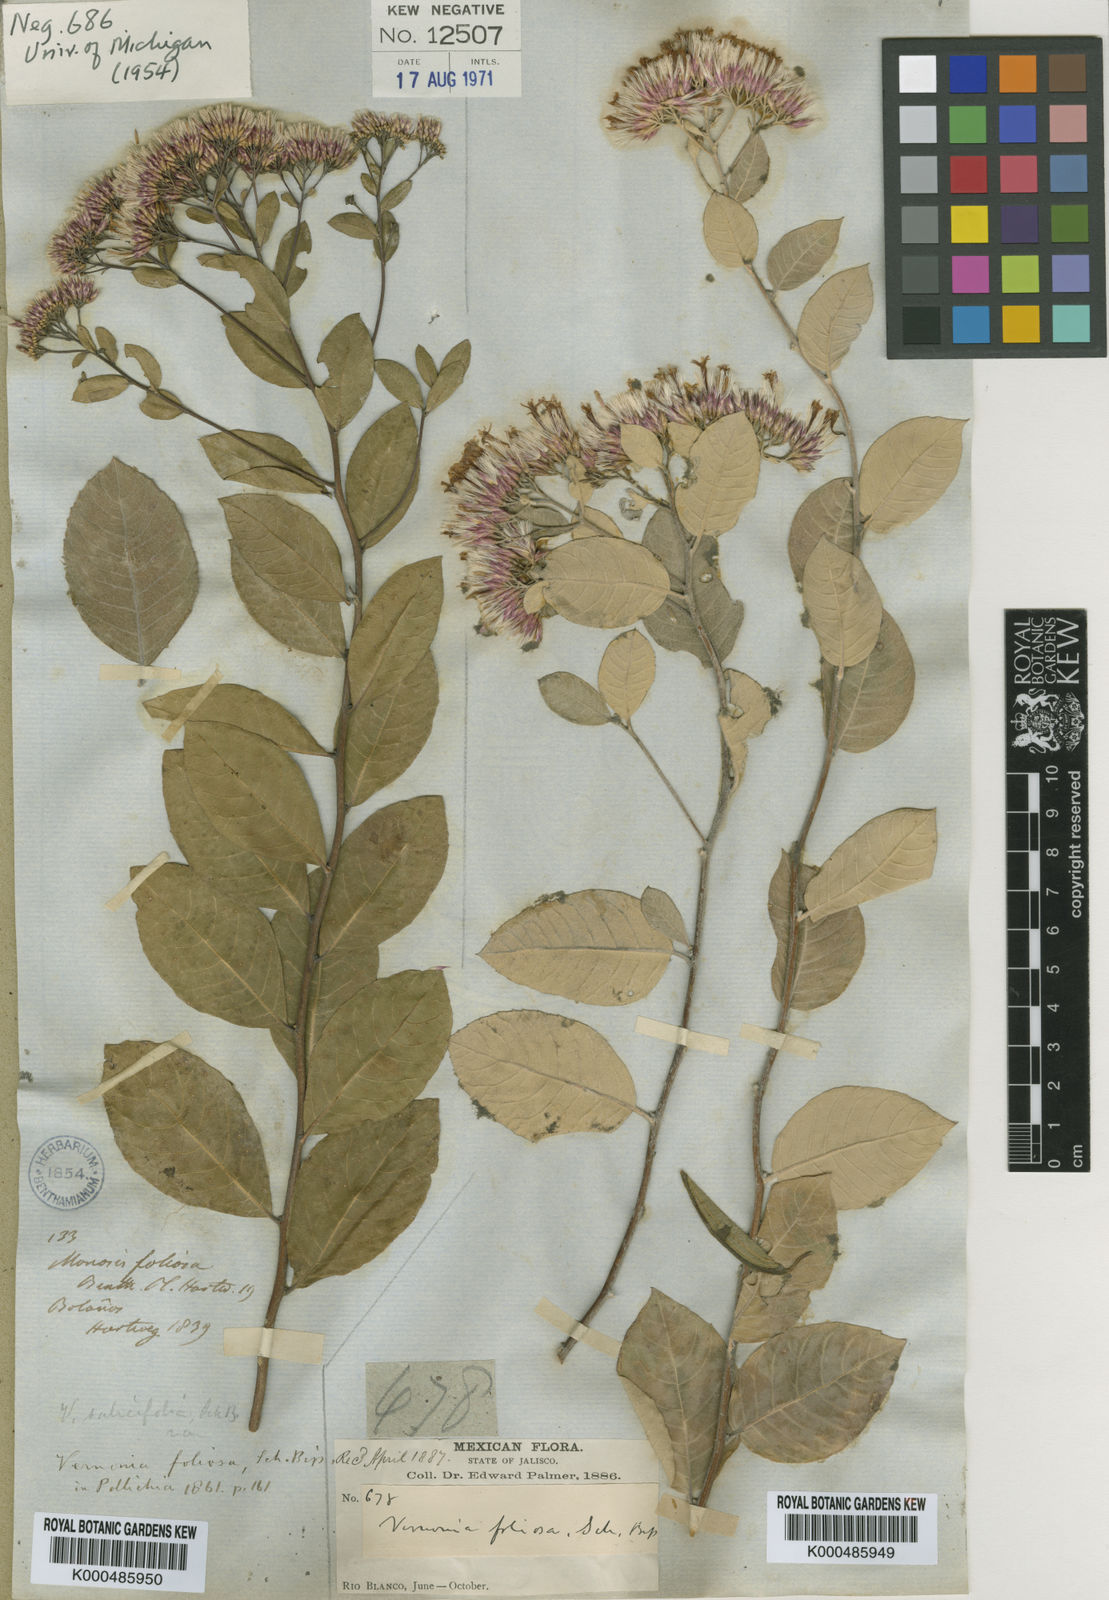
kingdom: Plantae
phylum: Tracheophyta
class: Magnoliopsida
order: Asterales
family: Asteraceae
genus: Eremosis
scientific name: Eremosis foliosa
